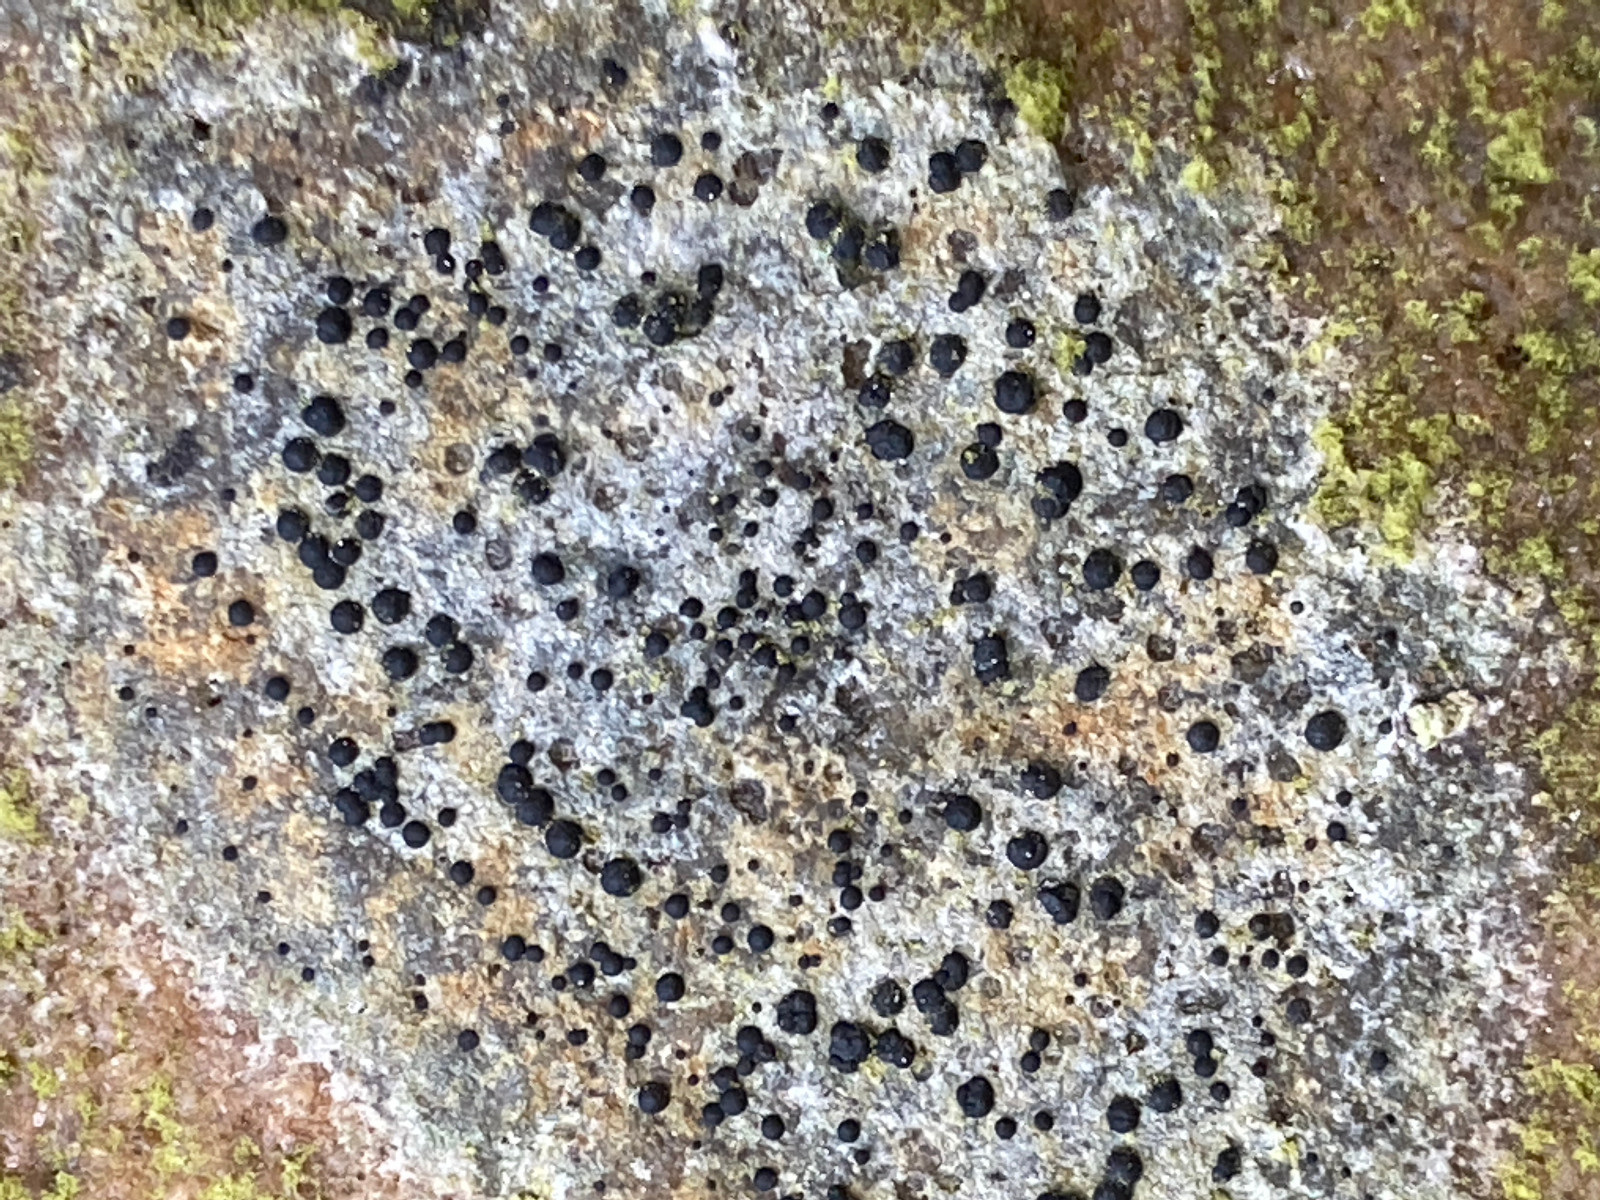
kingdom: Plantae
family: Lecanoromycetidae
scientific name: Lecanoromycetidae
